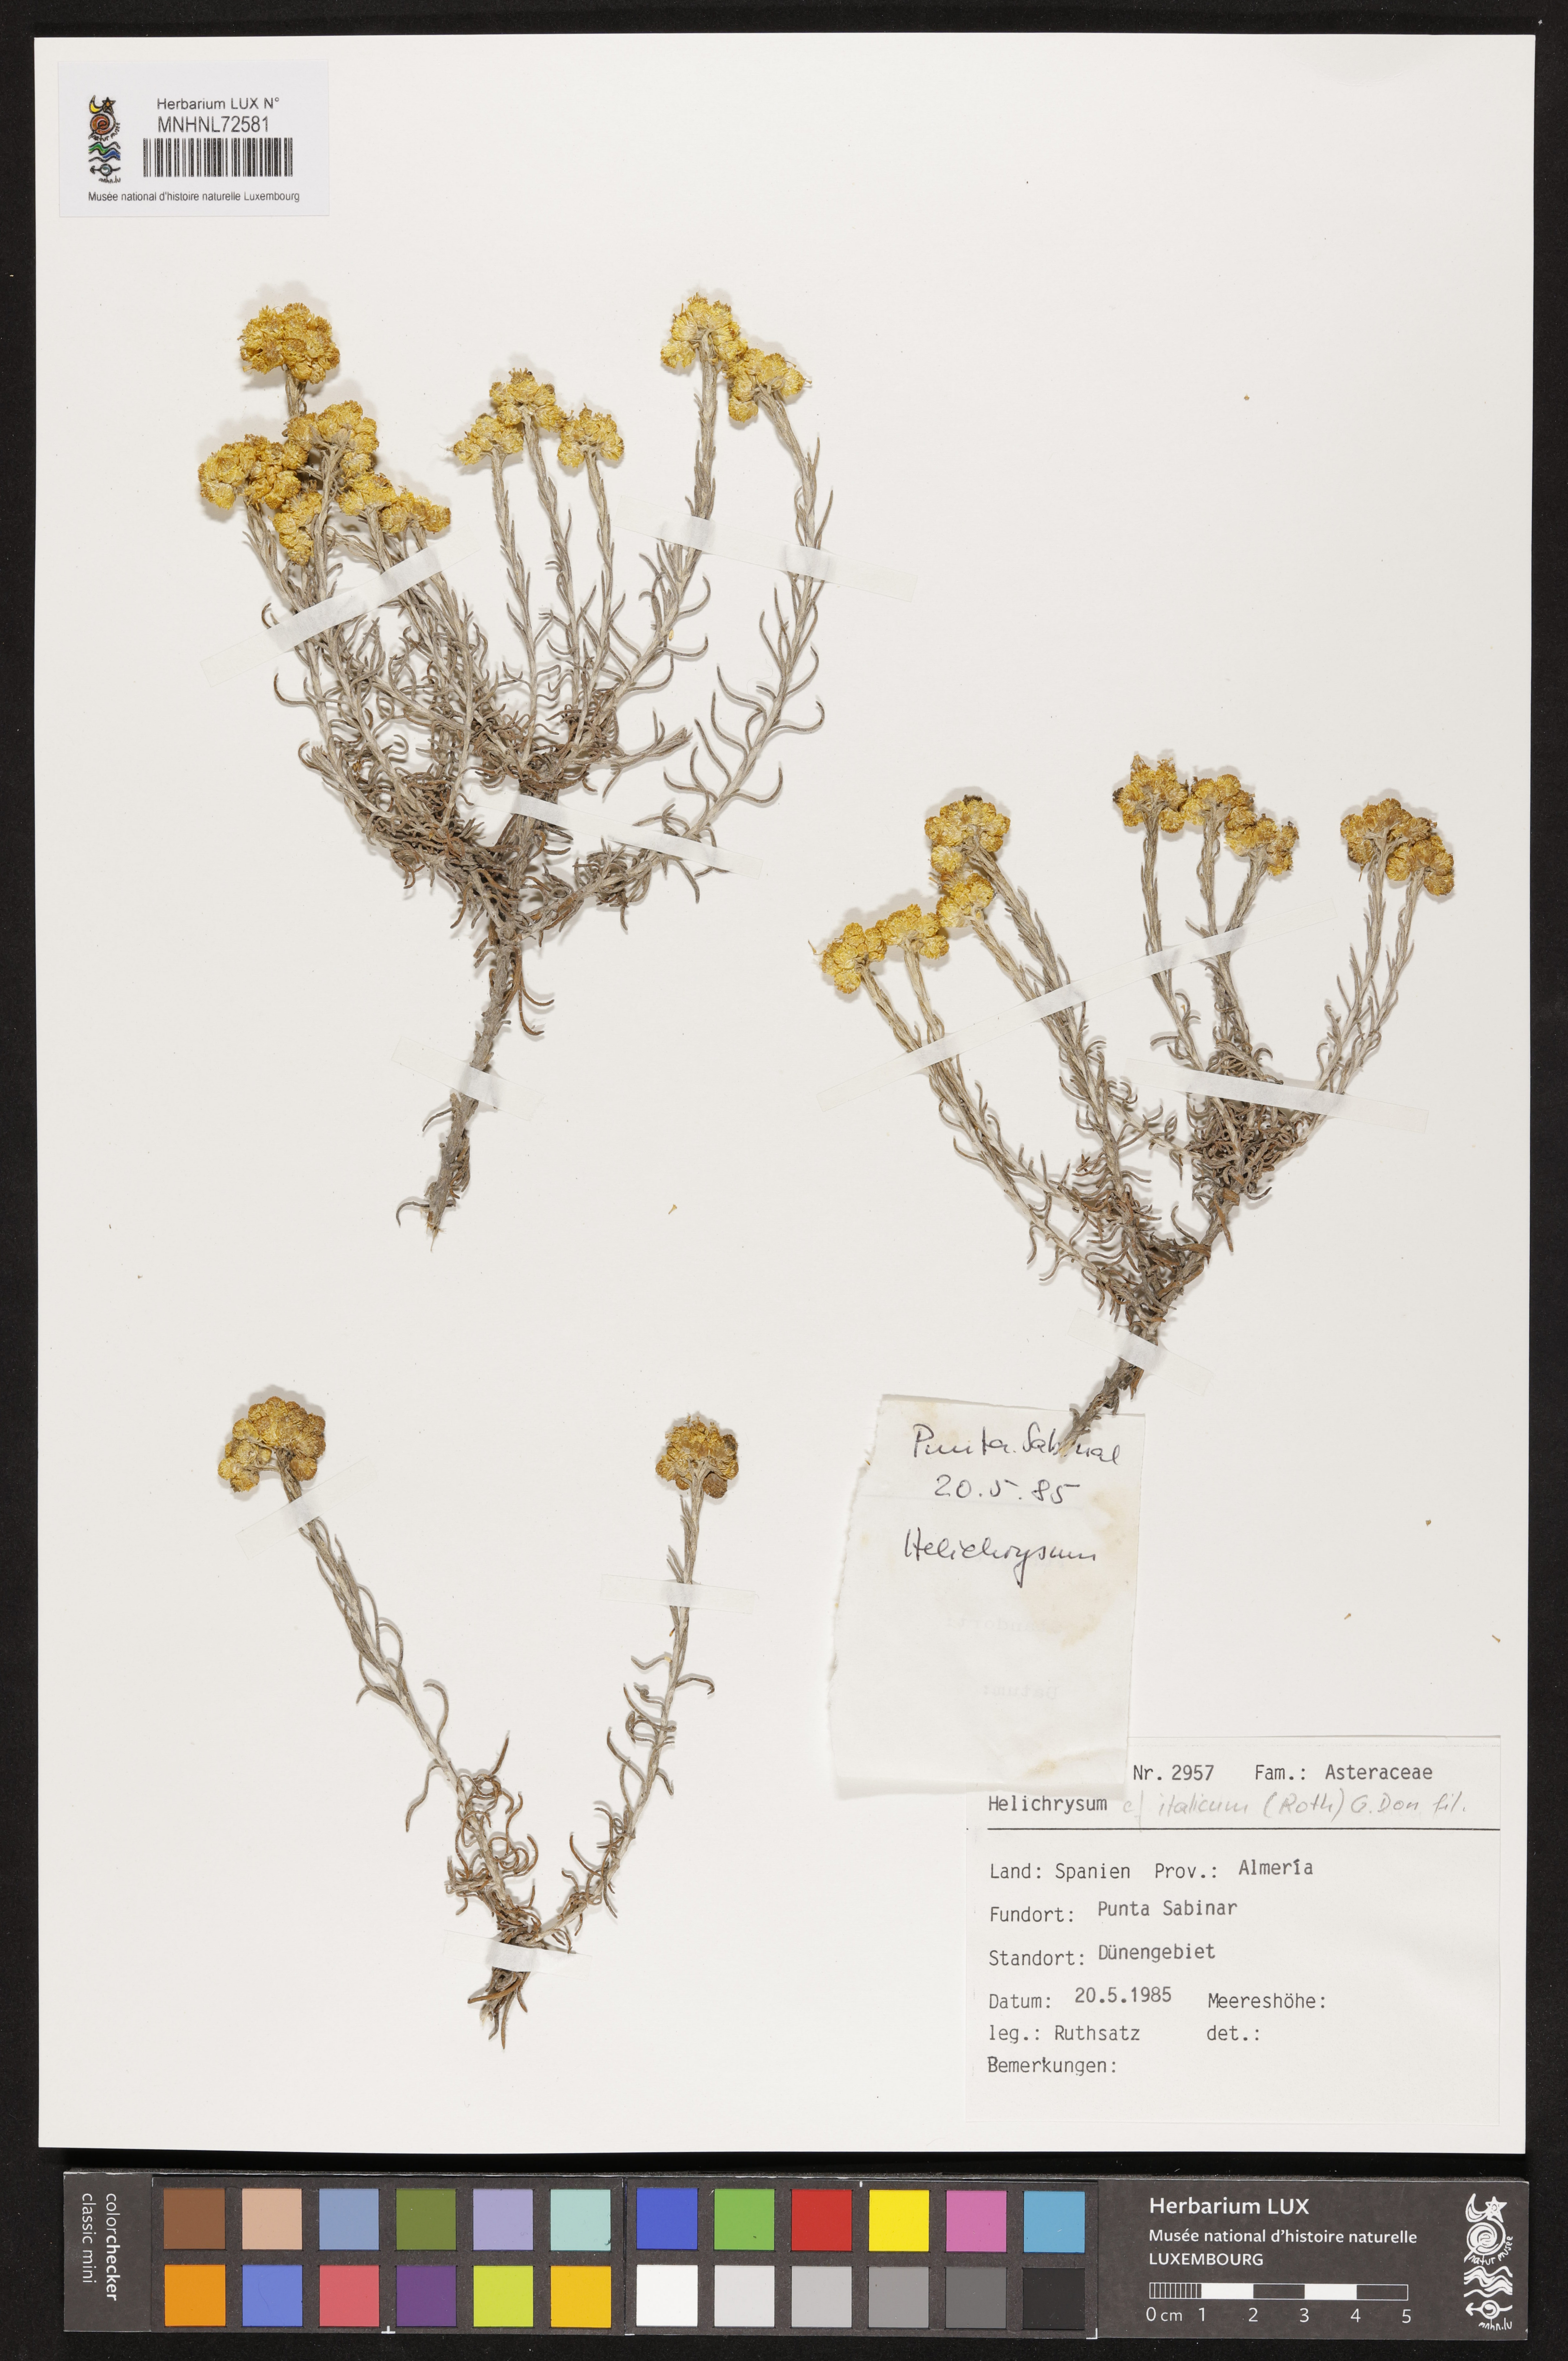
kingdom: Plantae
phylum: Tracheophyta
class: Magnoliopsida
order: Asterales
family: Asteraceae
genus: Helichrysum
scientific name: Helichrysum italicum
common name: Curryplant
